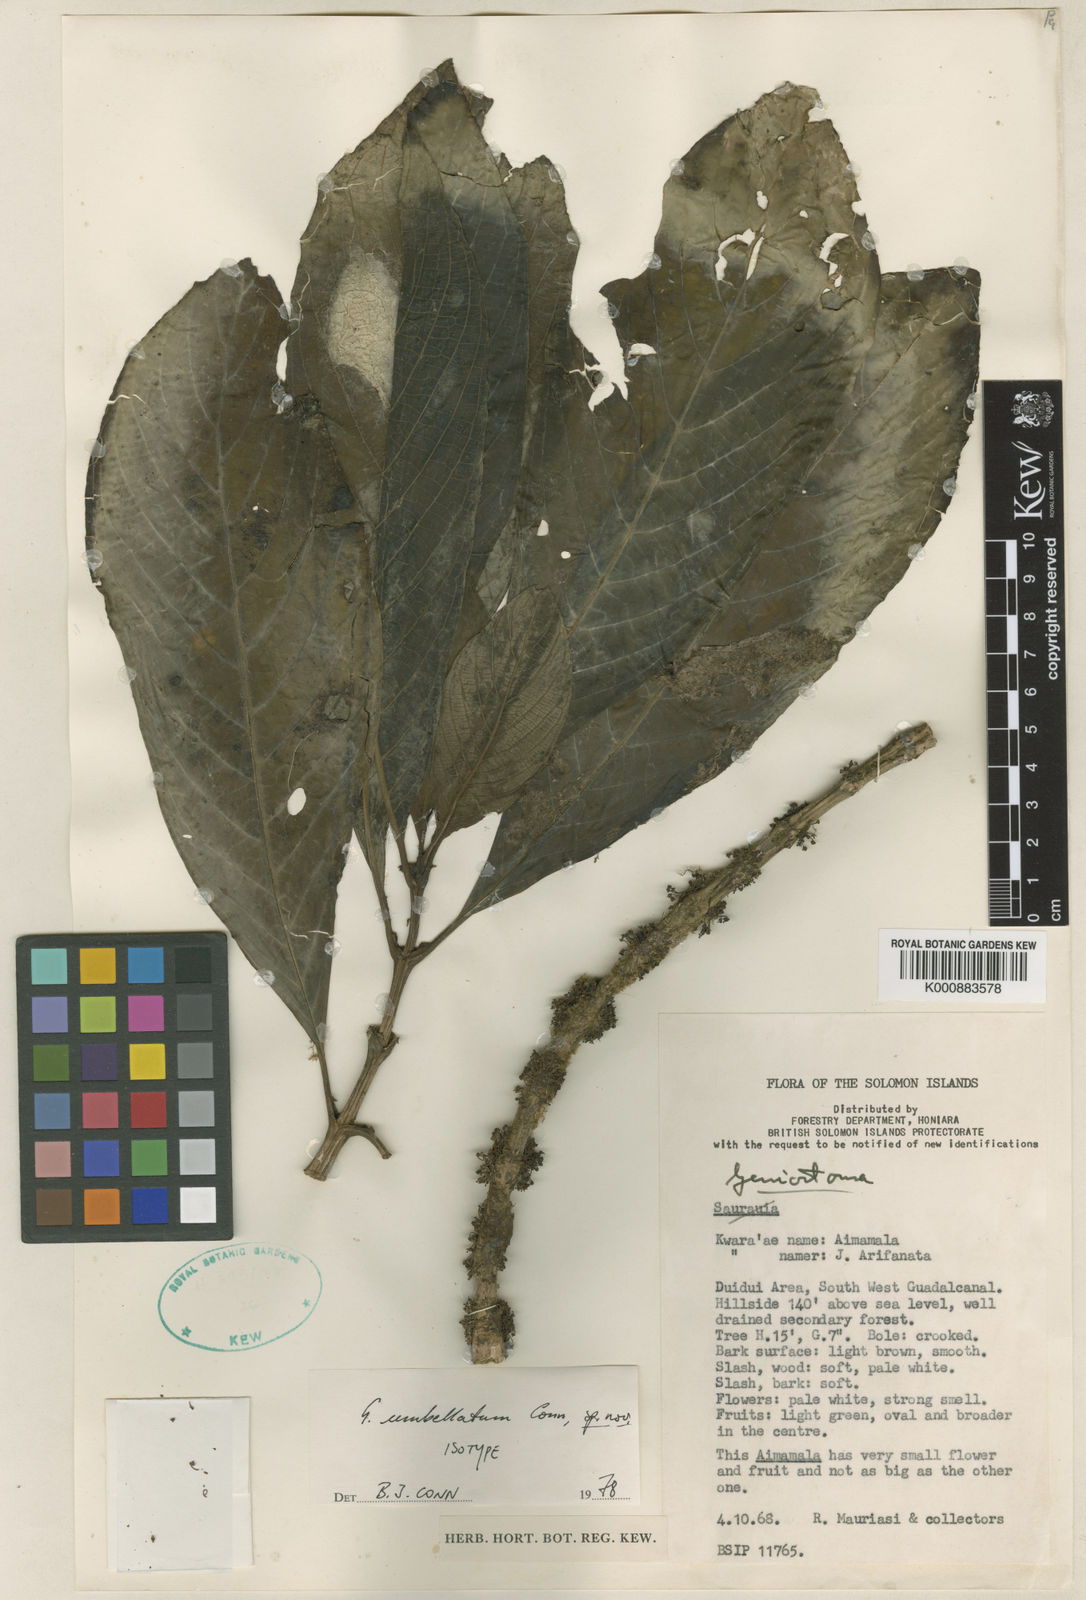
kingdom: Plantae
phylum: Tracheophyta
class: Magnoliopsida
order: Gentianales
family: Loganiaceae
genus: Geniostoma
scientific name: Geniostoma umbellatum
